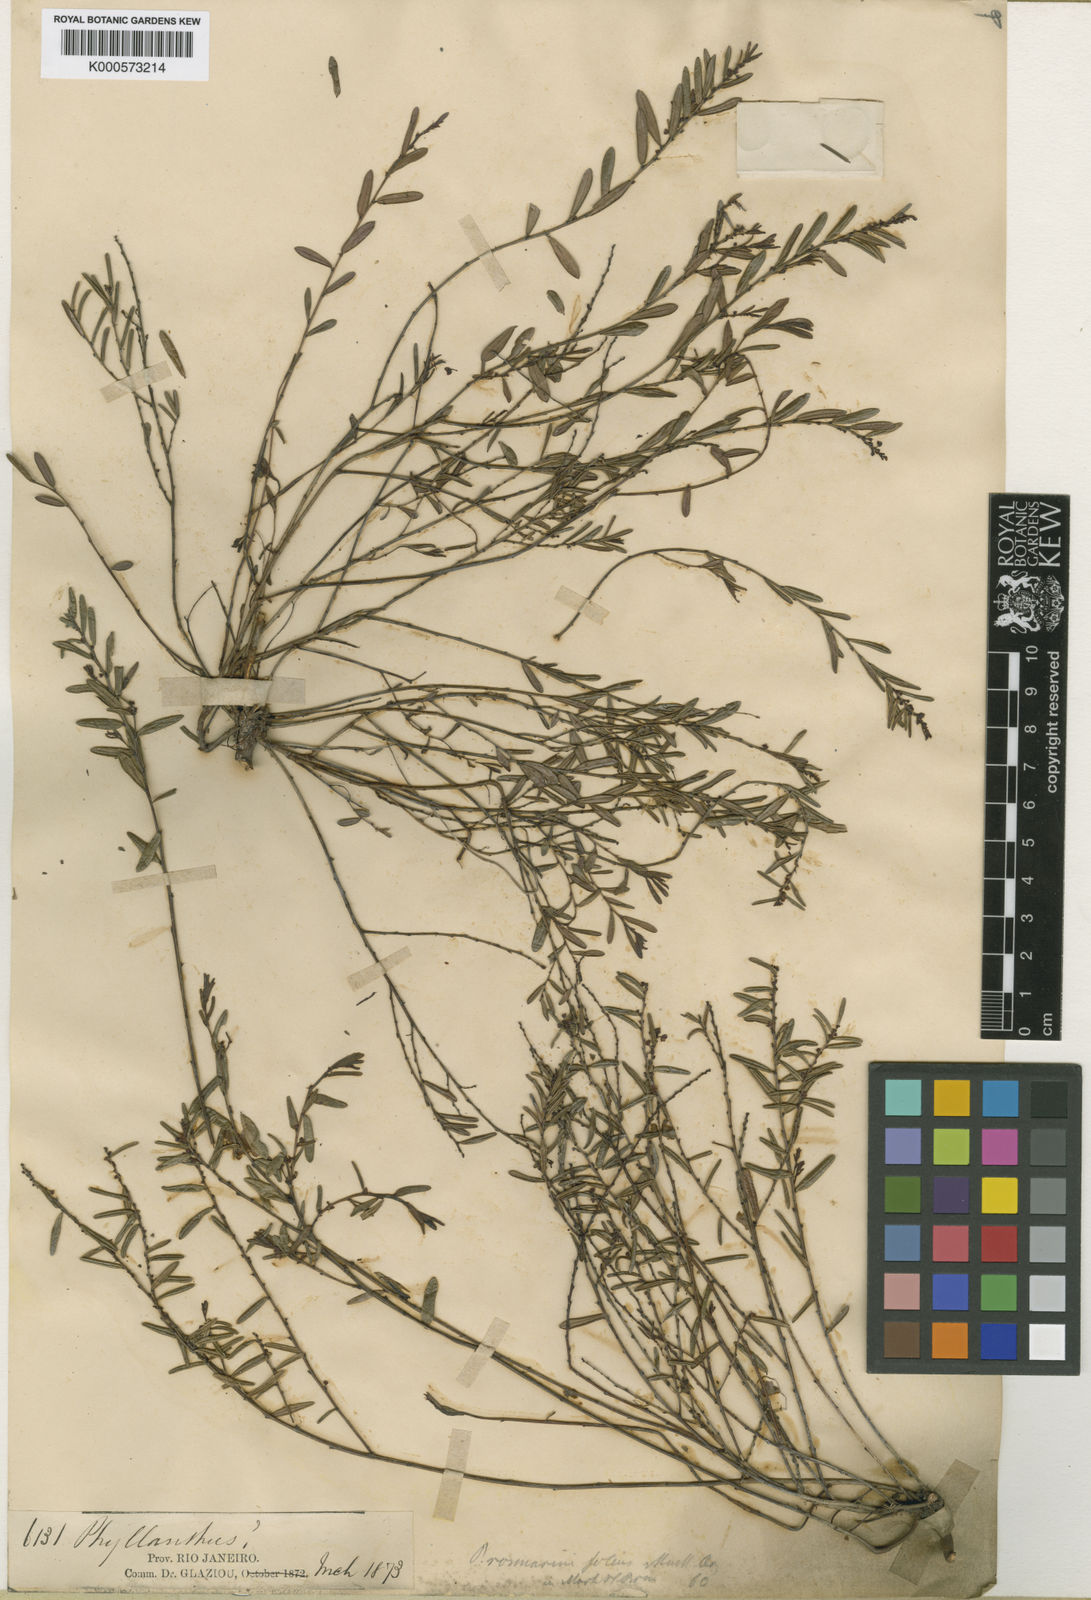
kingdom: Plantae
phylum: Tracheophyta
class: Magnoliopsida
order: Malpighiales
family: Phyllanthaceae
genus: Phyllanthus
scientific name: Phyllanthus
